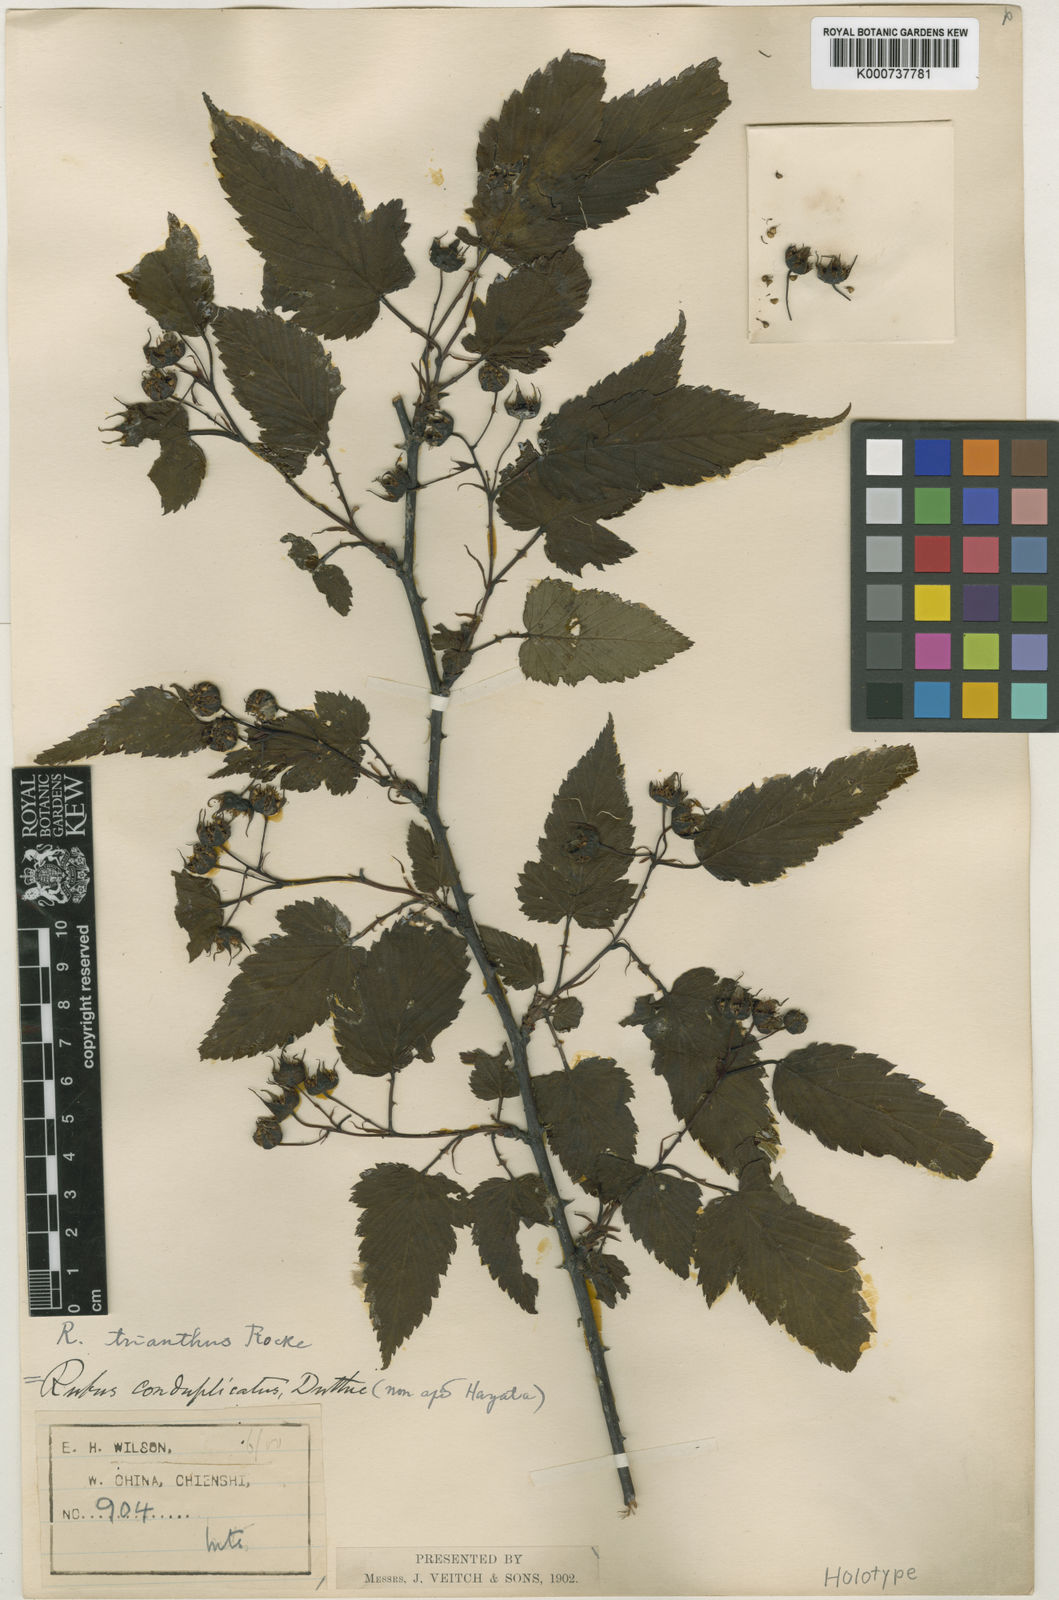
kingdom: Plantae
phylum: Tracheophyta
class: Magnoliopsida
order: Rosales
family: Rosaceae
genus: Rubus
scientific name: Rubus subcrataegifolius
